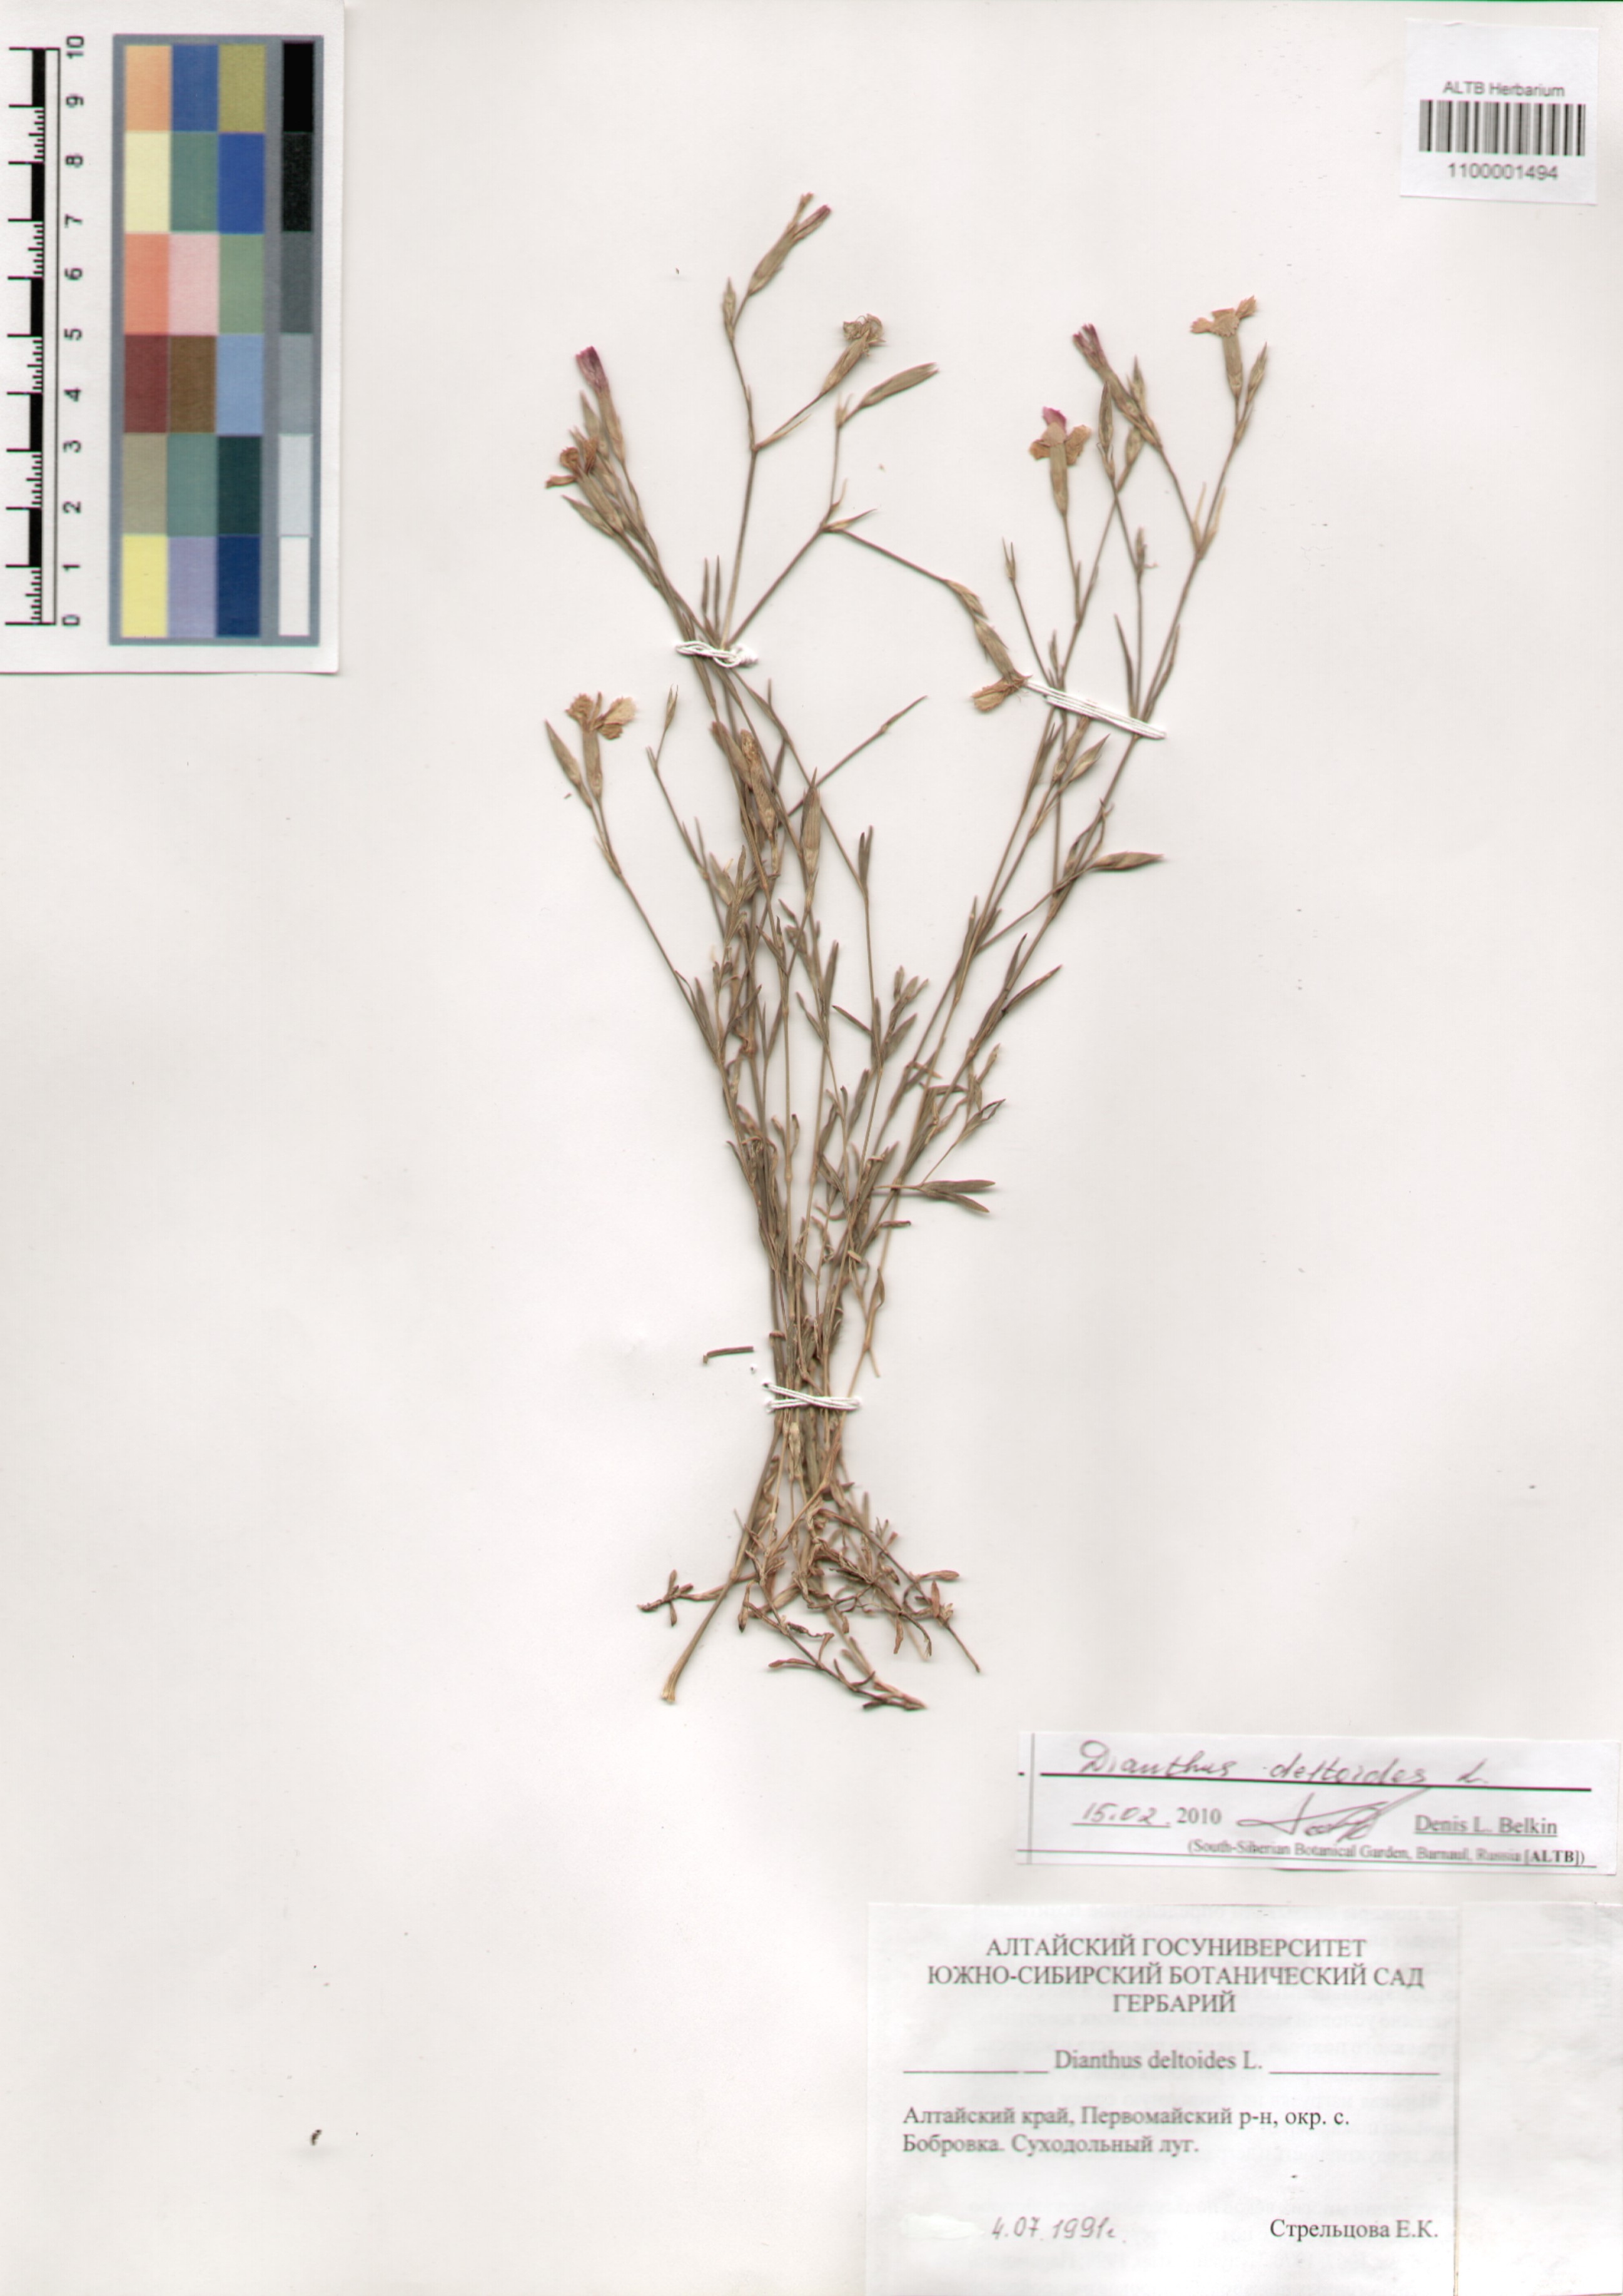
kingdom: Plantae
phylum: Tracheophyta
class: Magnoliopsida
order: Caryophyllales
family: Caryophyllaceae
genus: Dianthus
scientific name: Dianthus deltoides
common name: Maiden pink
